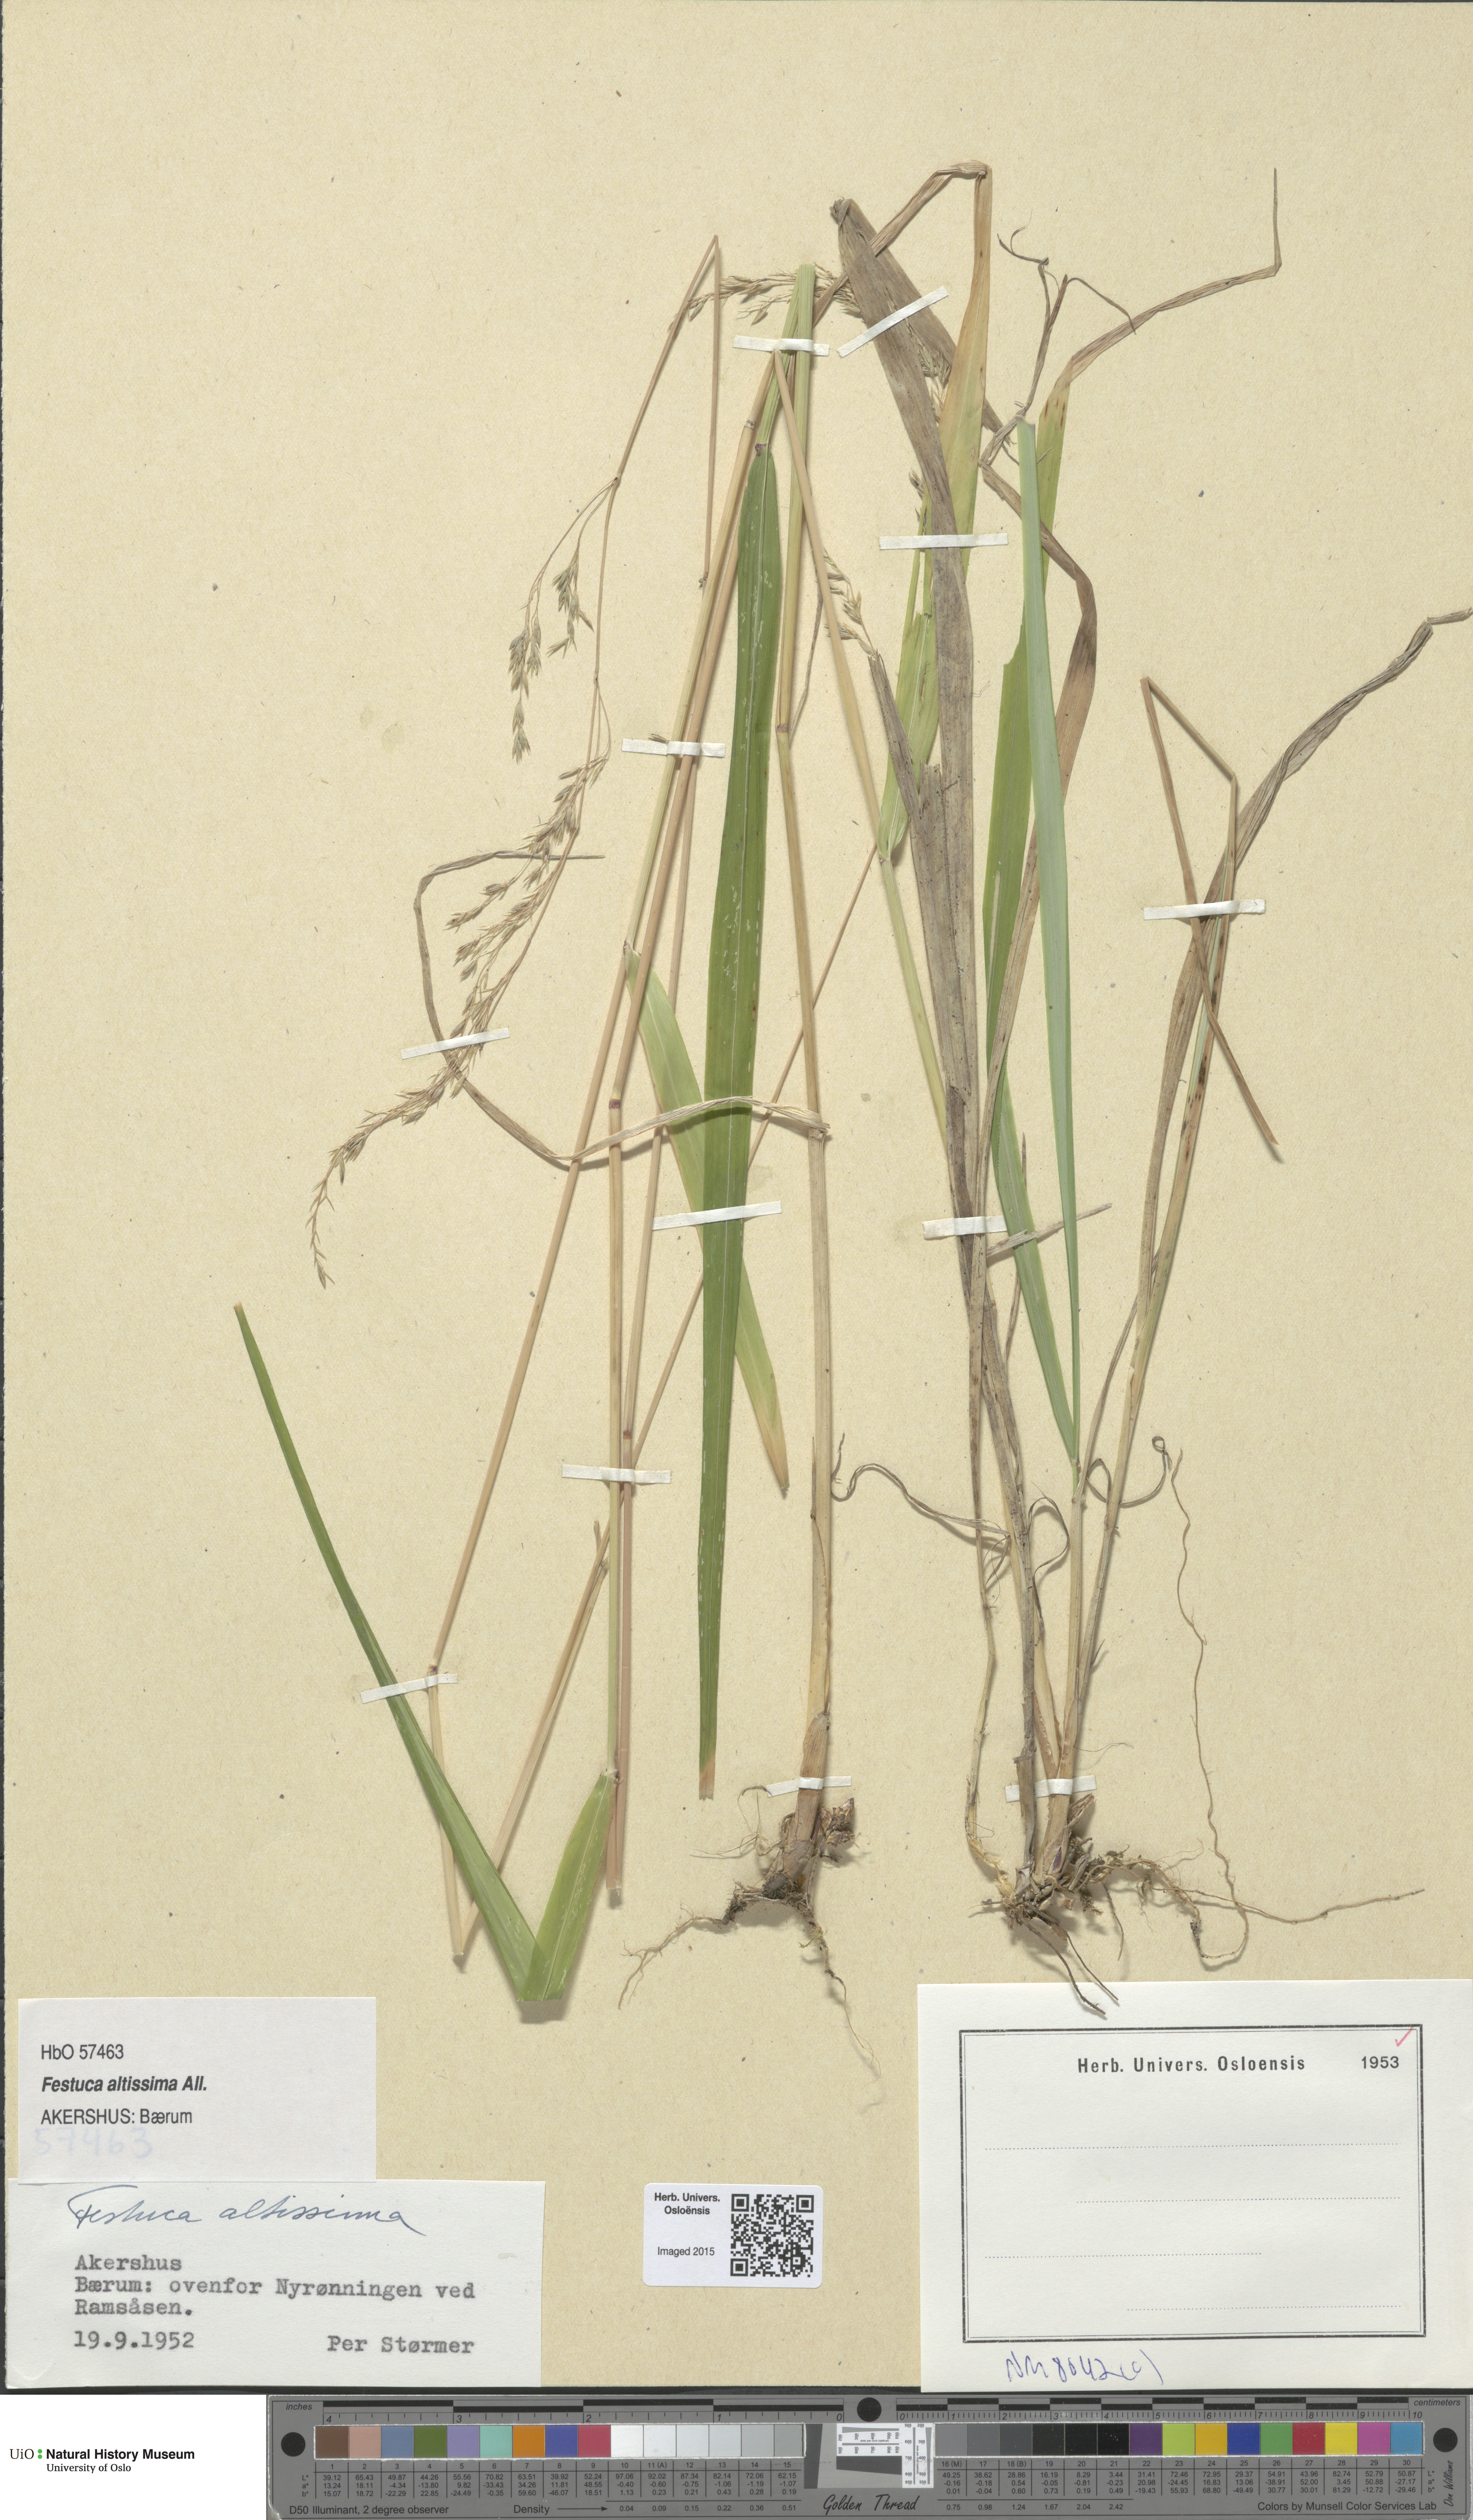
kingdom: Plantae
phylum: Tracheophyta
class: Liliopsida
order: Poales
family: Poaceae
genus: Festuca
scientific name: Festuca altissima
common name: Wood fescue
